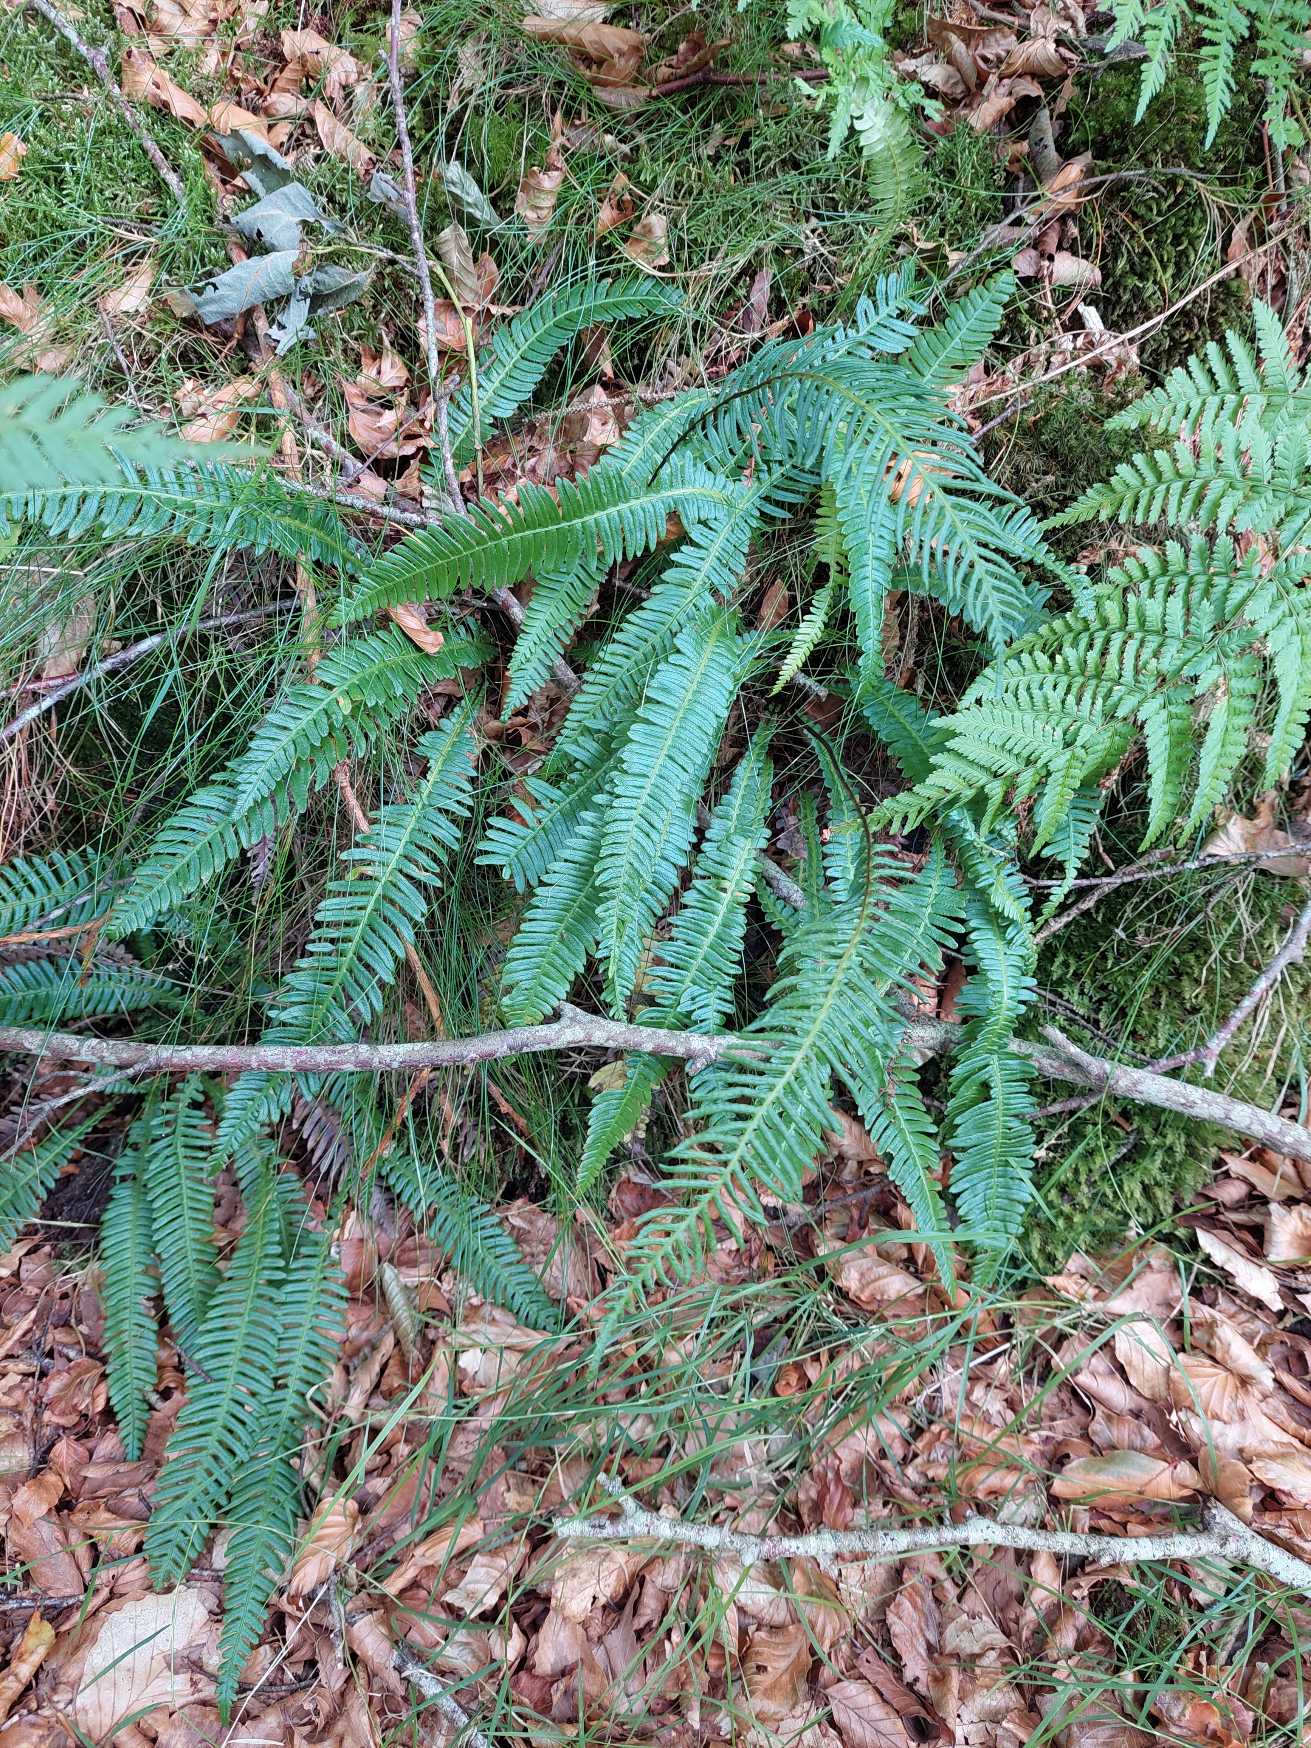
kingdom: Plantae
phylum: Tracheophyta
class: Polypodiopsida
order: Polypodiales
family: Blechnaceae
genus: Struthiopteris
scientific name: Struthiopteris spicant
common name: Kambregne
